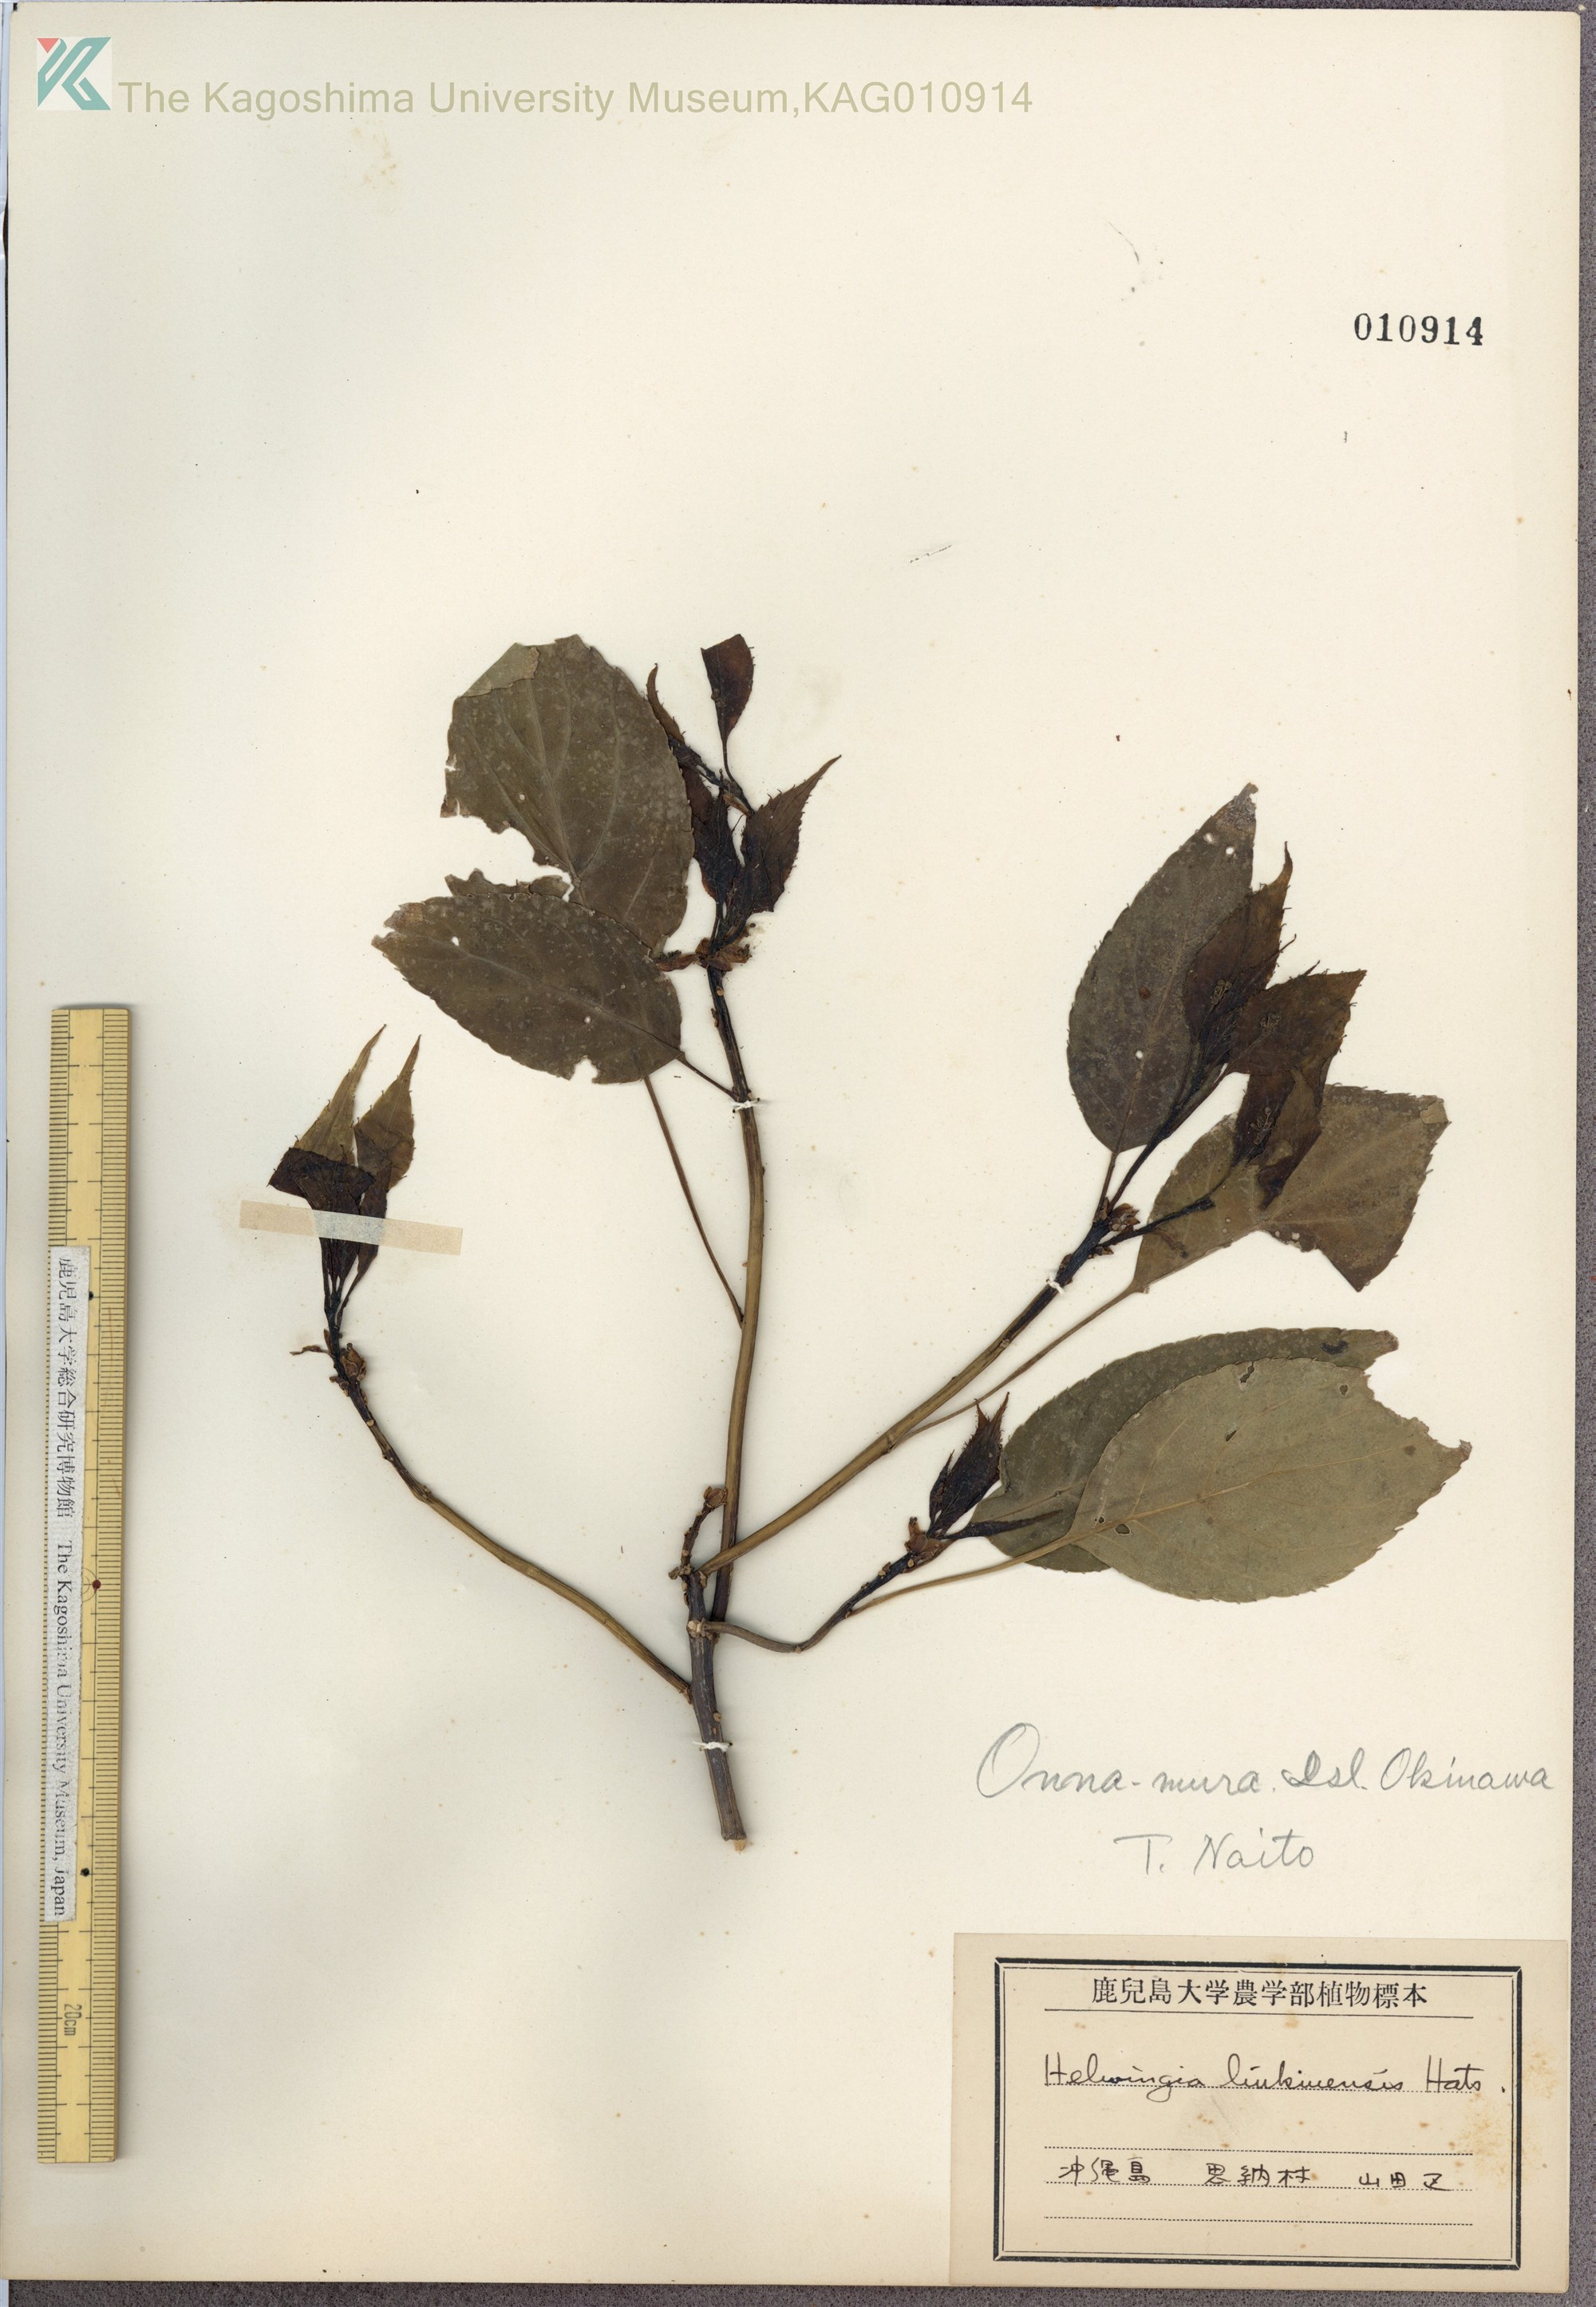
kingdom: Plantae
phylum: Tracheophyta
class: Magnoliopsida
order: Aquifoliales
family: Helwingiaceae
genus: Helwingia
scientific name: Helwingia japonica
